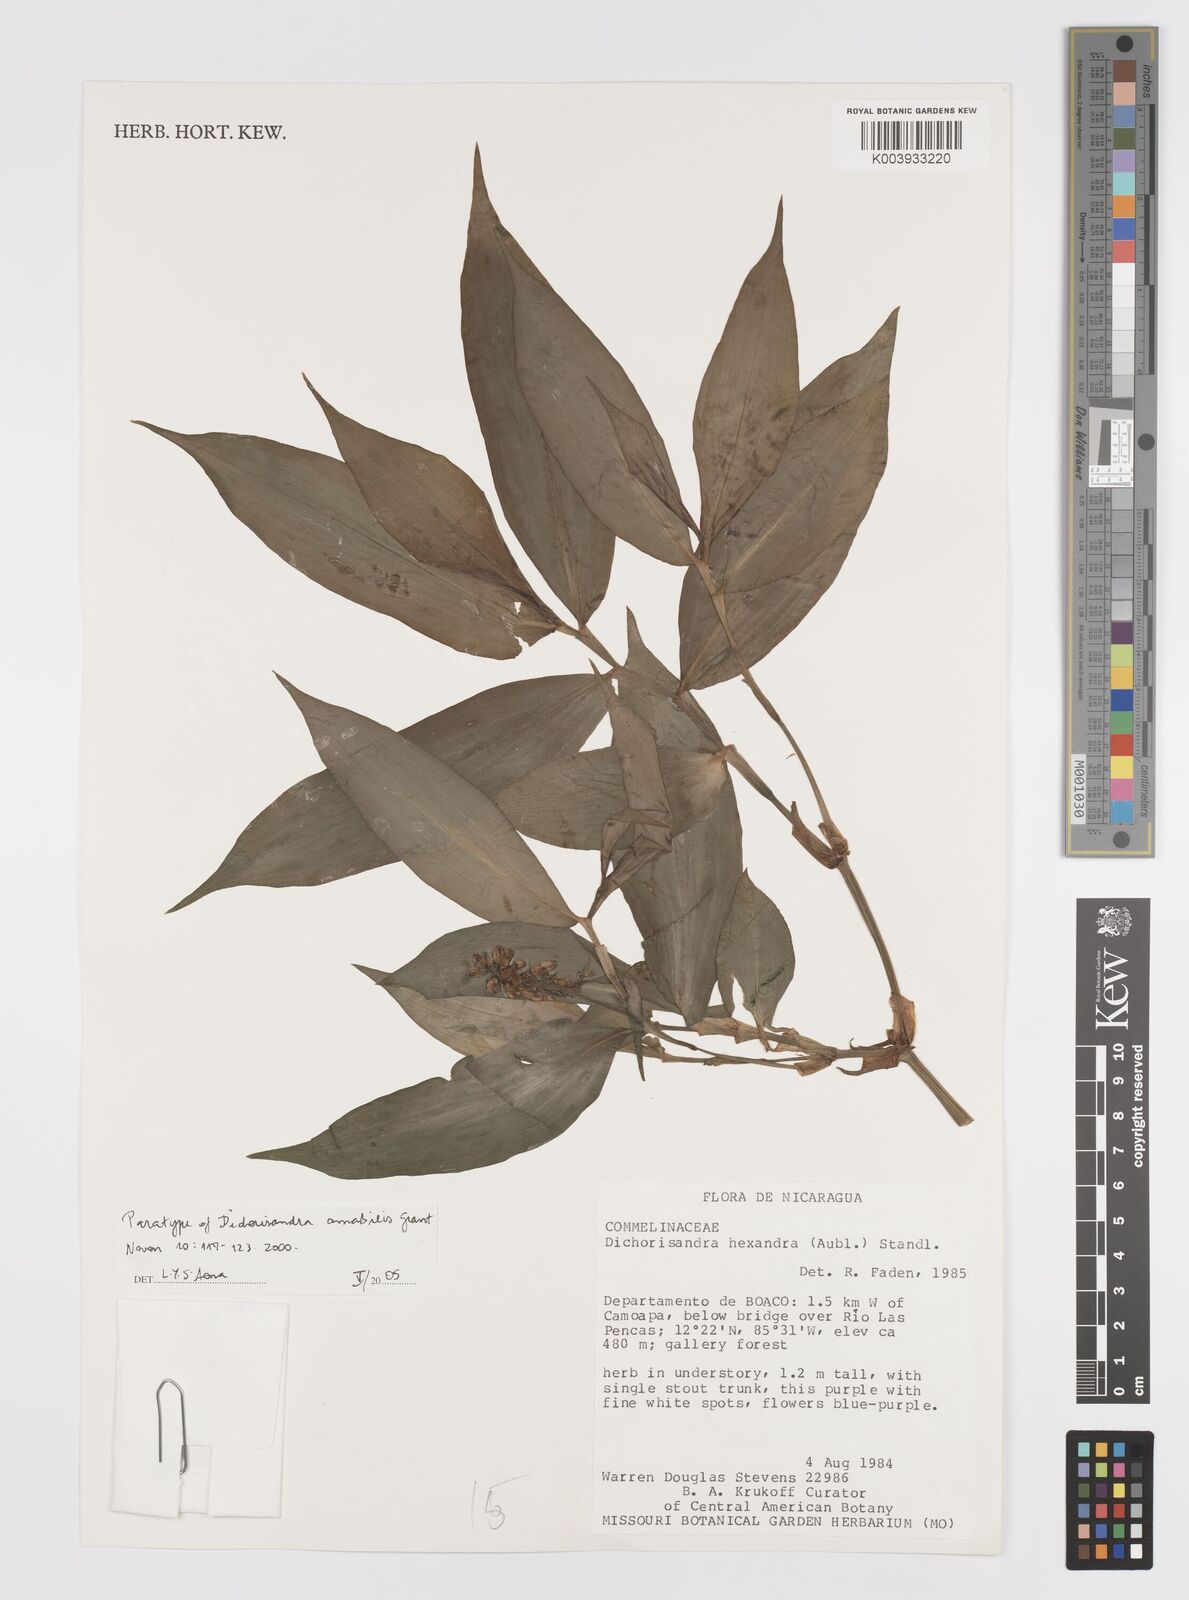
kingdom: Plantae
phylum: Tracheophyta
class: Liliopsida
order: Commelinales
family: Commelinaceae
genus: Dichorisandra
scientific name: Dichorisandra amabilis
